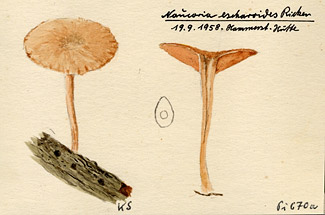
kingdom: Fungi
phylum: Basidiomycota
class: Agaricomycetes
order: Agaricales
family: Tubariaceae
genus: Tubaria
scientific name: Tubaria conspersa
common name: Felted twiglet
